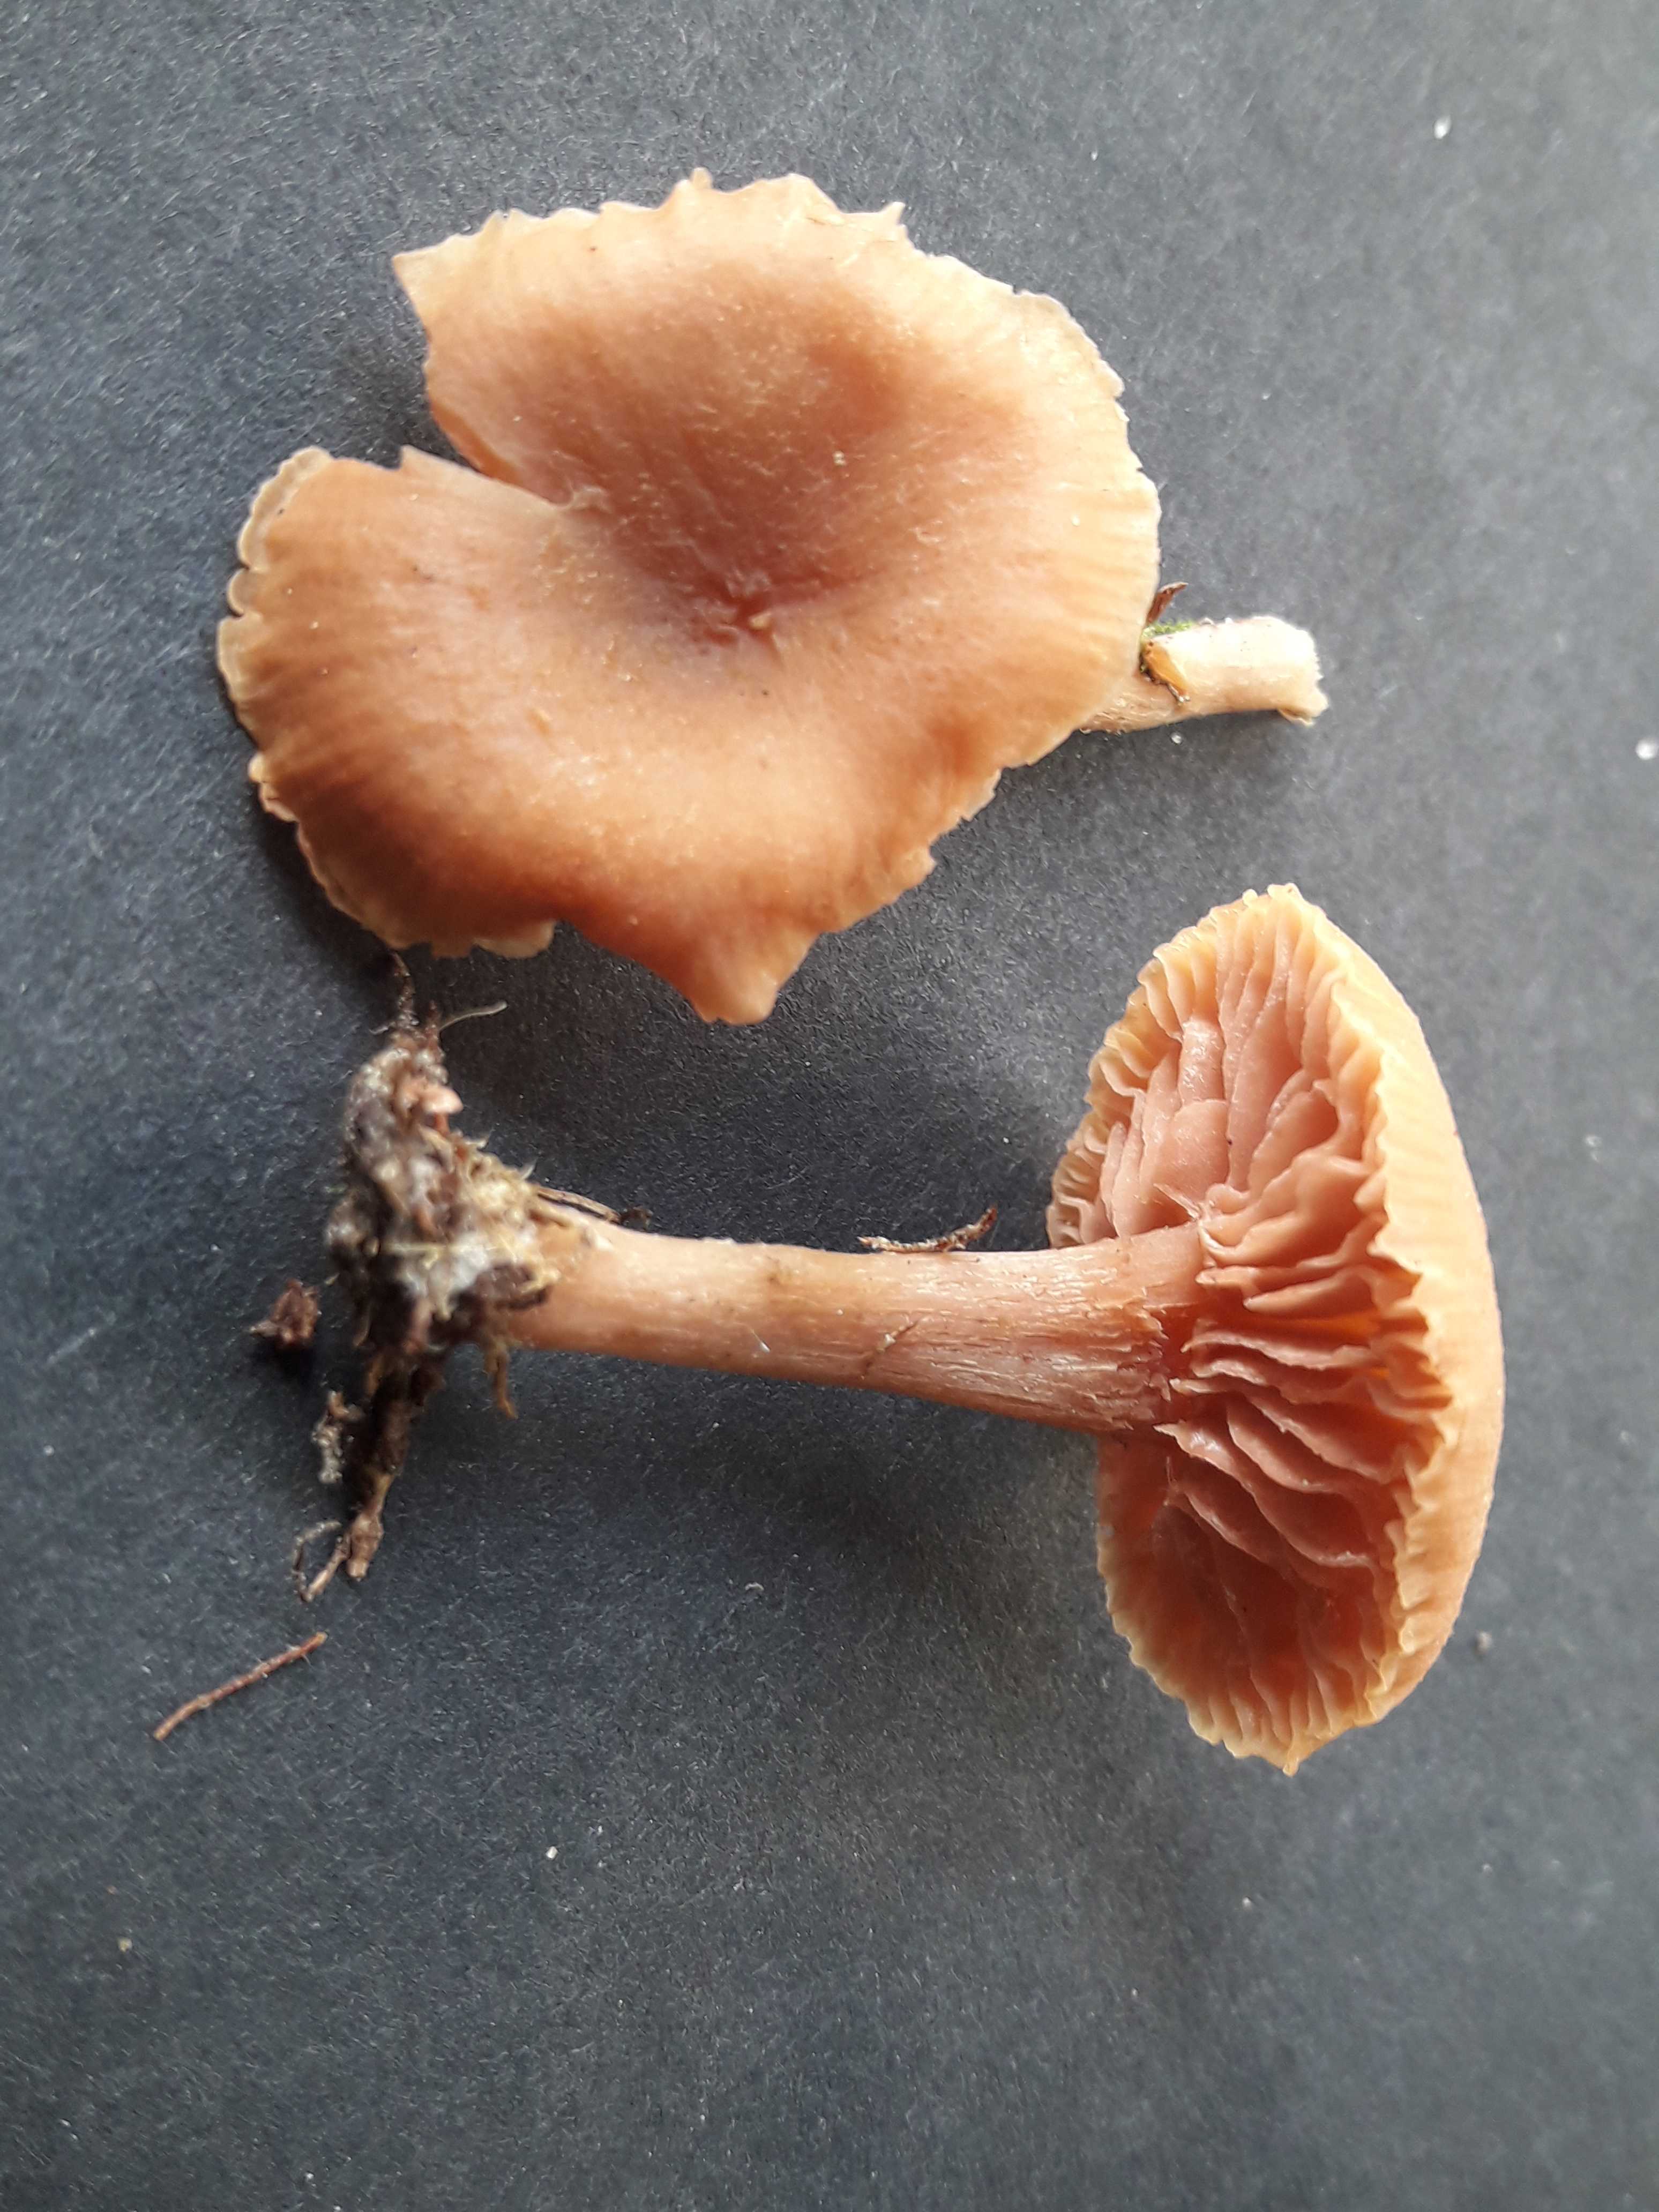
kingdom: Fungi
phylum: Basidiomycota
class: Agaricomycetes
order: Agaricales
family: Hydnangiaceae
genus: Laccaria
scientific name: Laccaria laccata
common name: rød ametysthat
